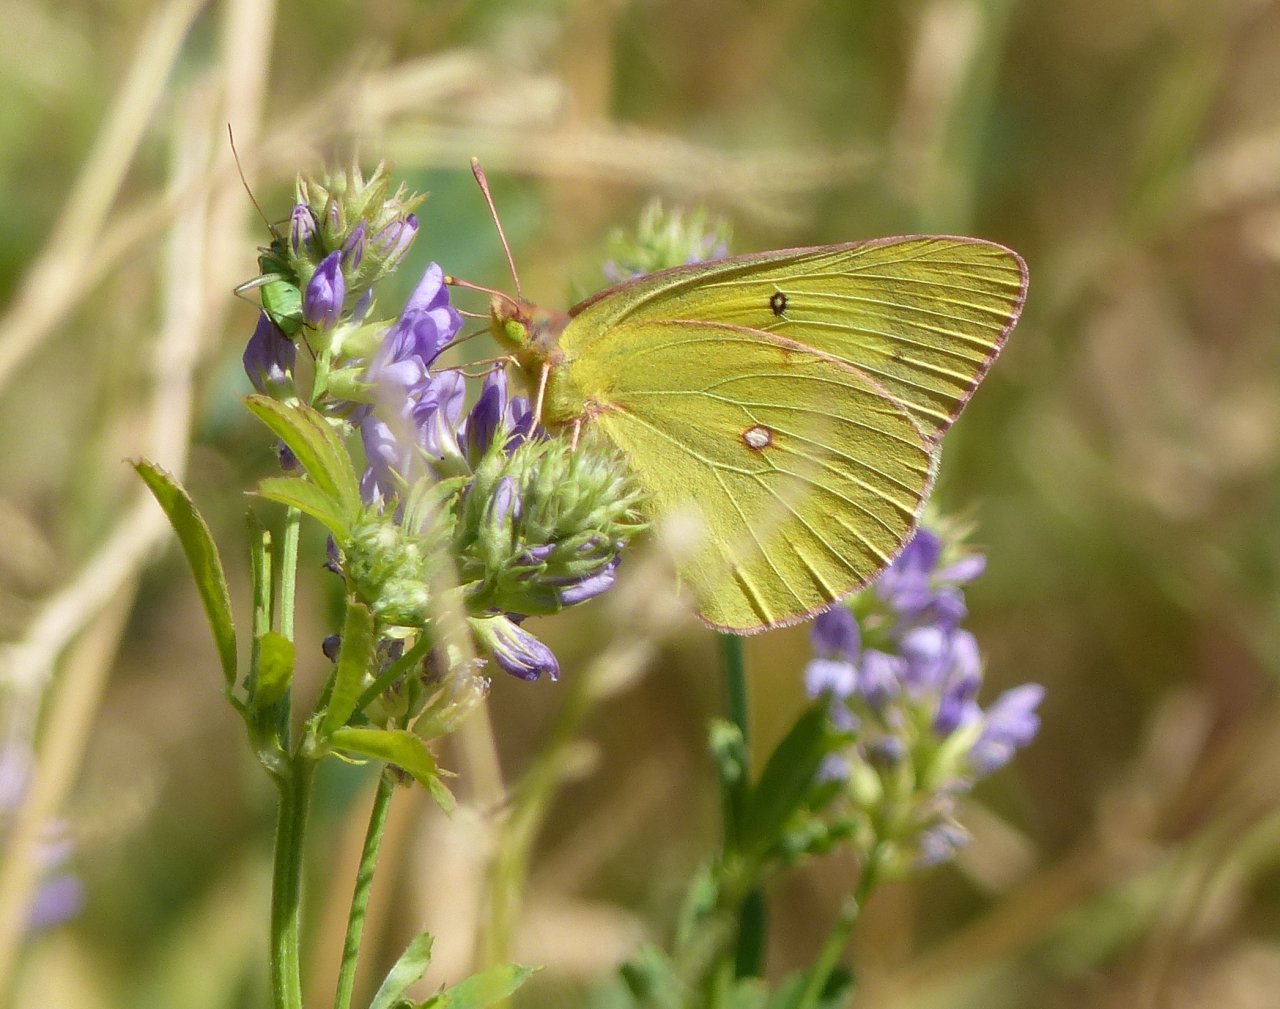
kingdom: Animalia
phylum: Arthropoda
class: Insecta
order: Lepidoptera
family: Pieridae
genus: Colias
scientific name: Colias philodice
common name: Clouded Sulphur
